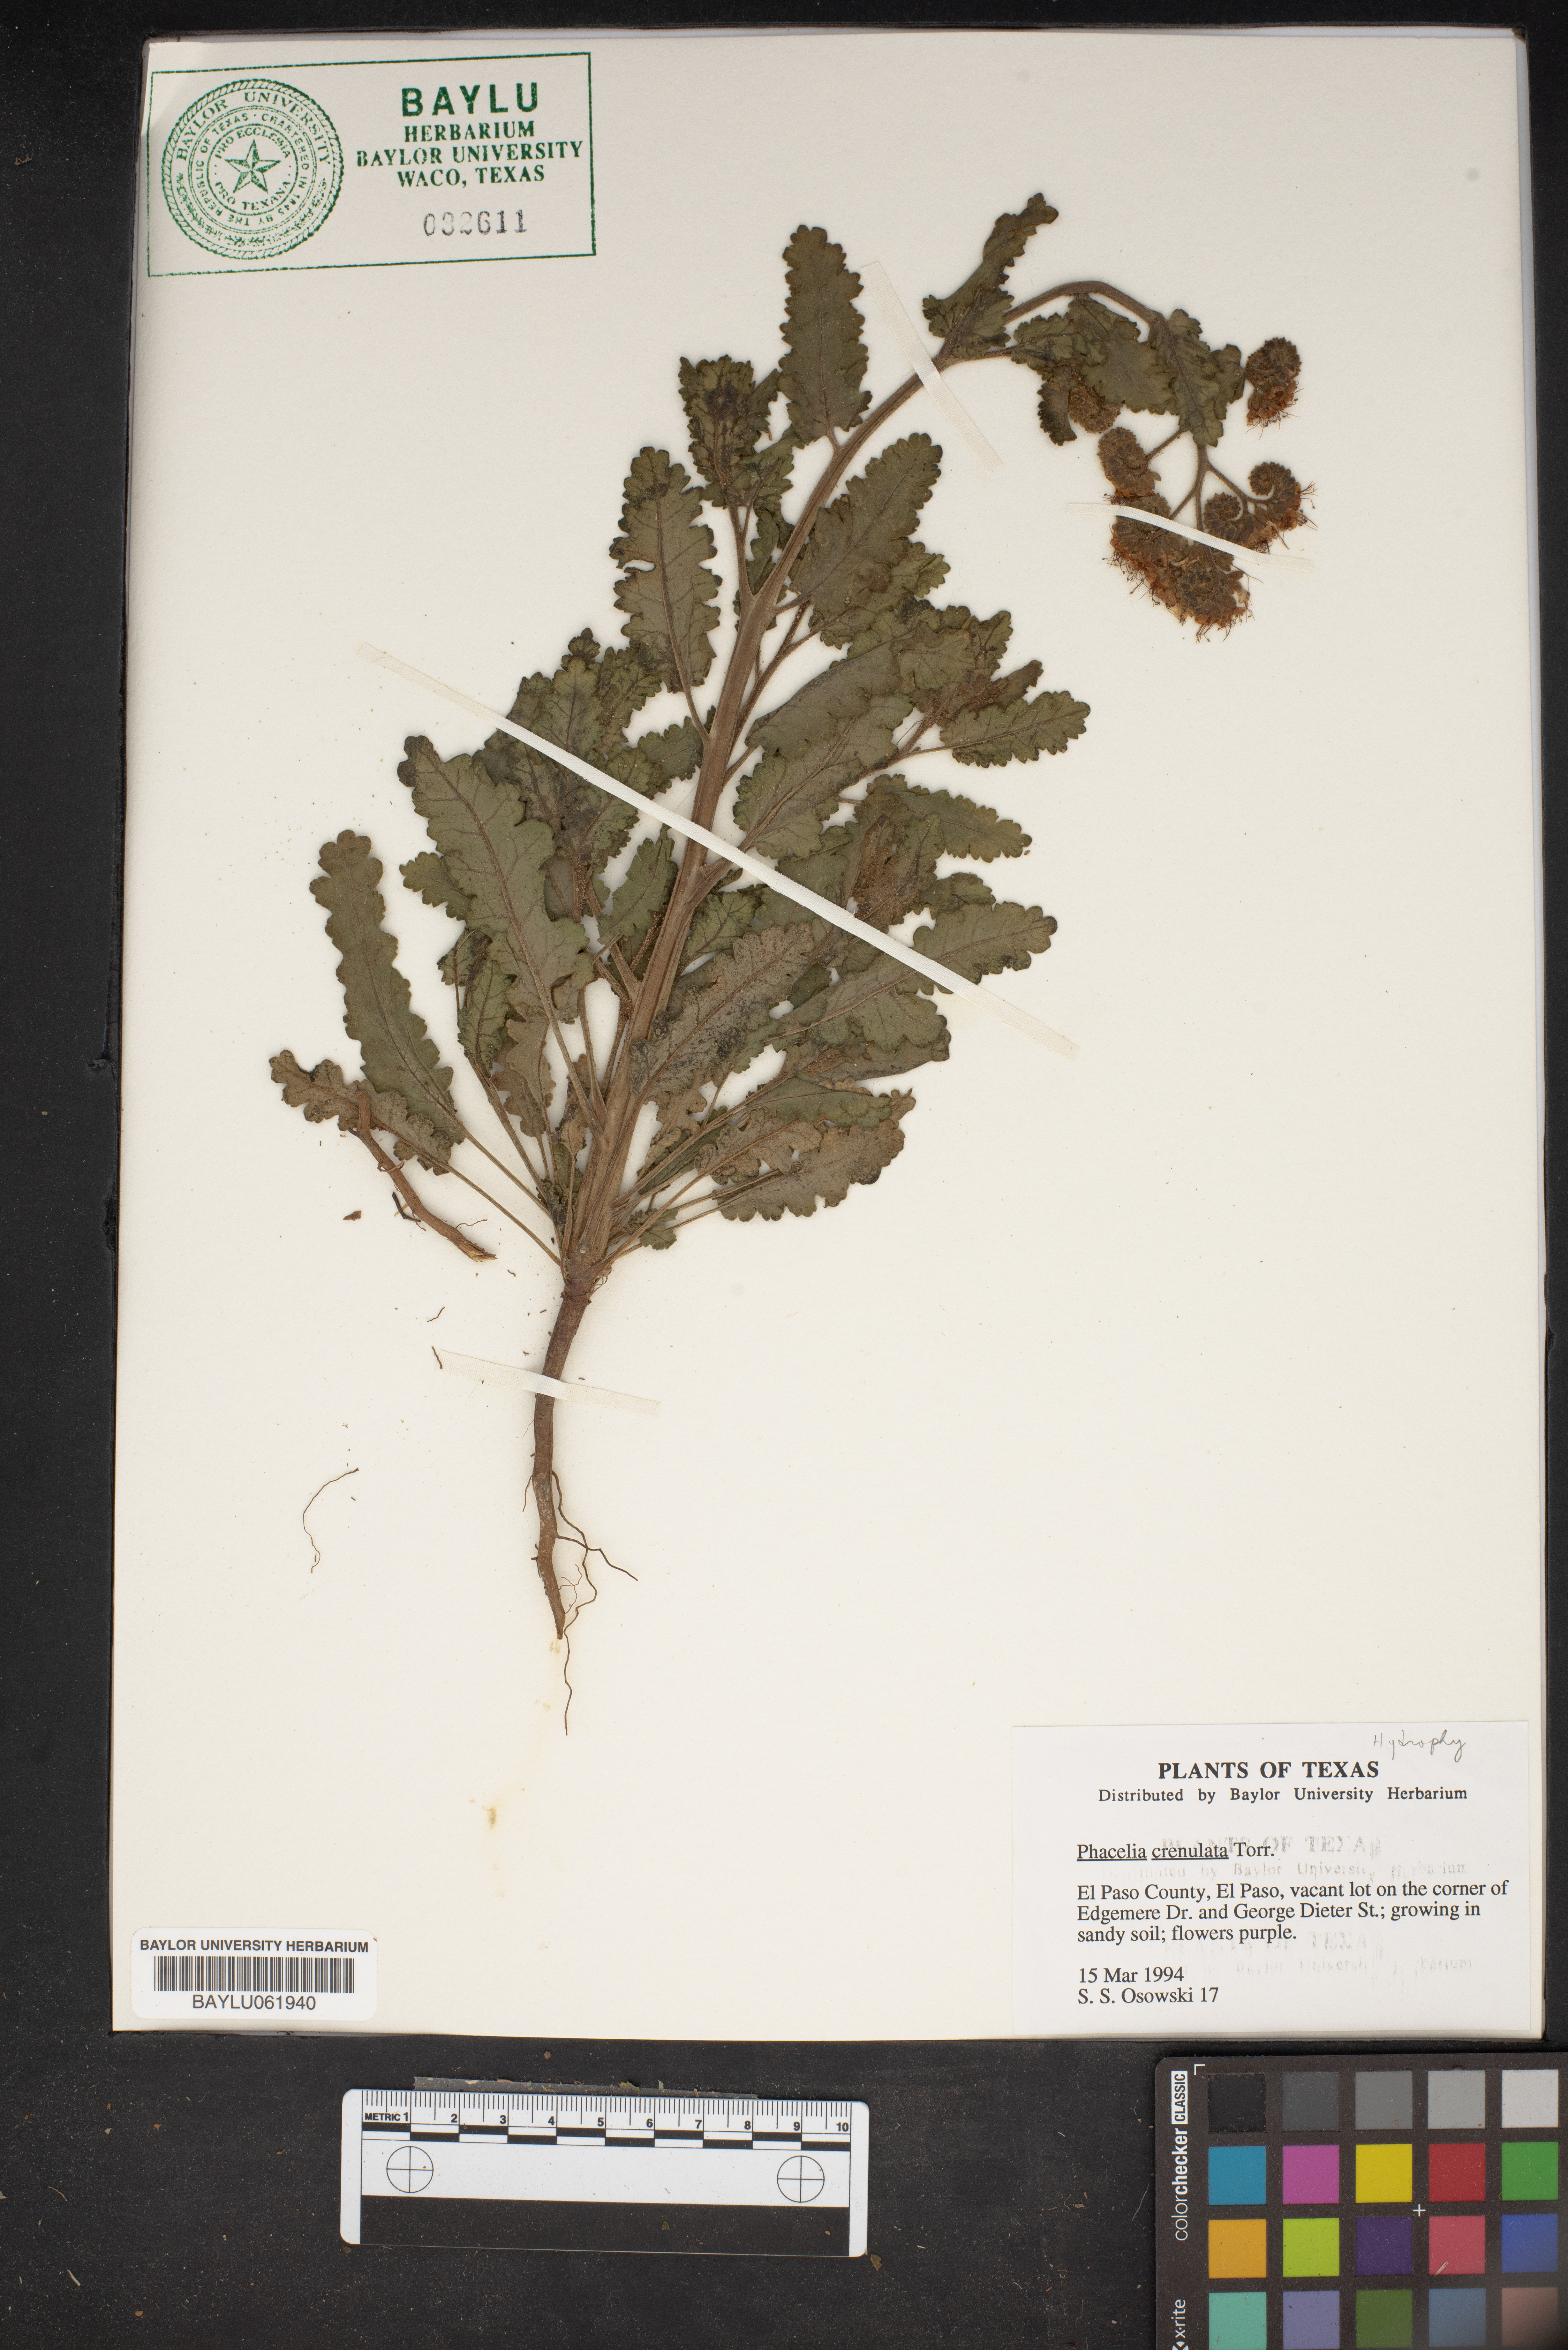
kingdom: Plantae
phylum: Tracheophyta
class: Magnoliopsida
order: Boraginales
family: Hydrophyllaceae
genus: Phacelia
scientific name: Phacelia crenulata
